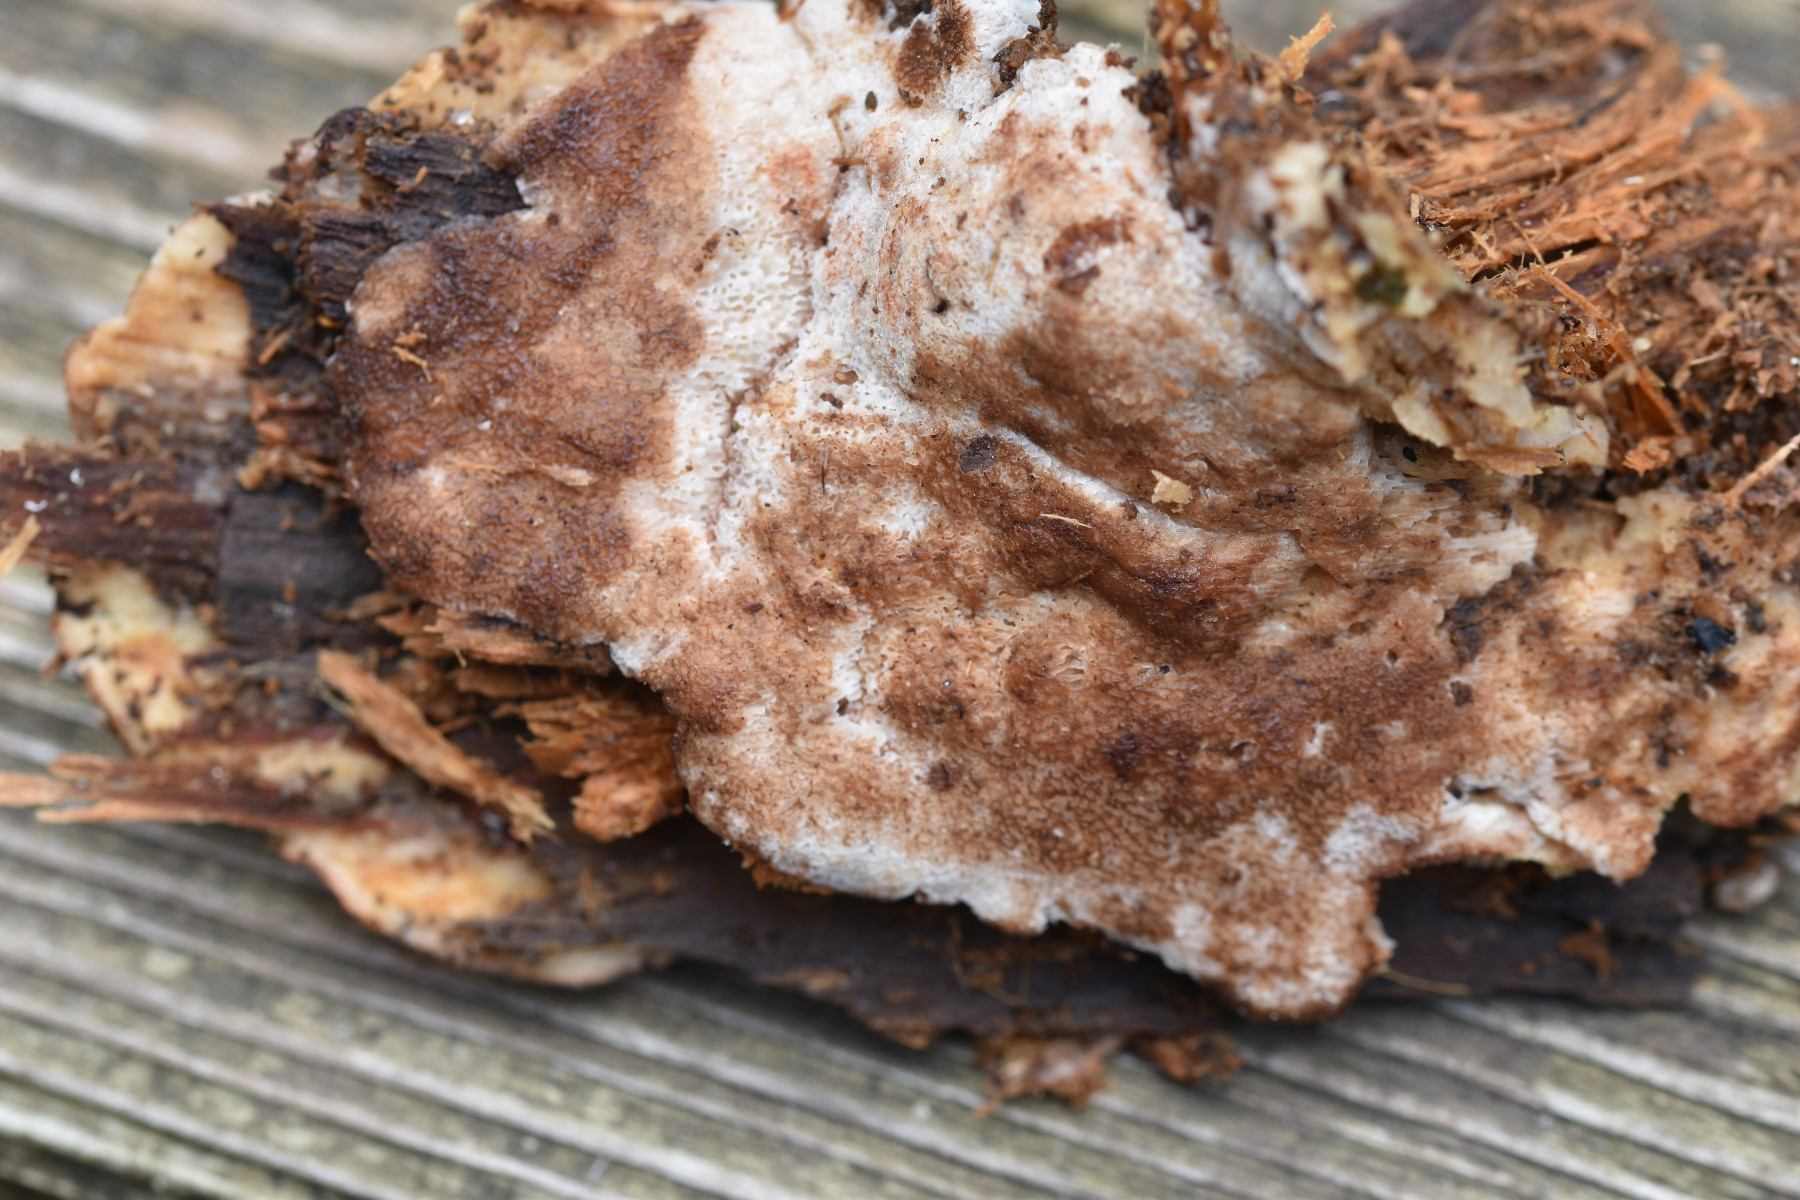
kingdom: Fungi
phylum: Basidiomycota
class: Agaricomycetes
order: Polyporales
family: Meripilaceae
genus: Rigidoporus
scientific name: Rigidoporus sanguinolentus
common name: blod-skorpeporesvamp
